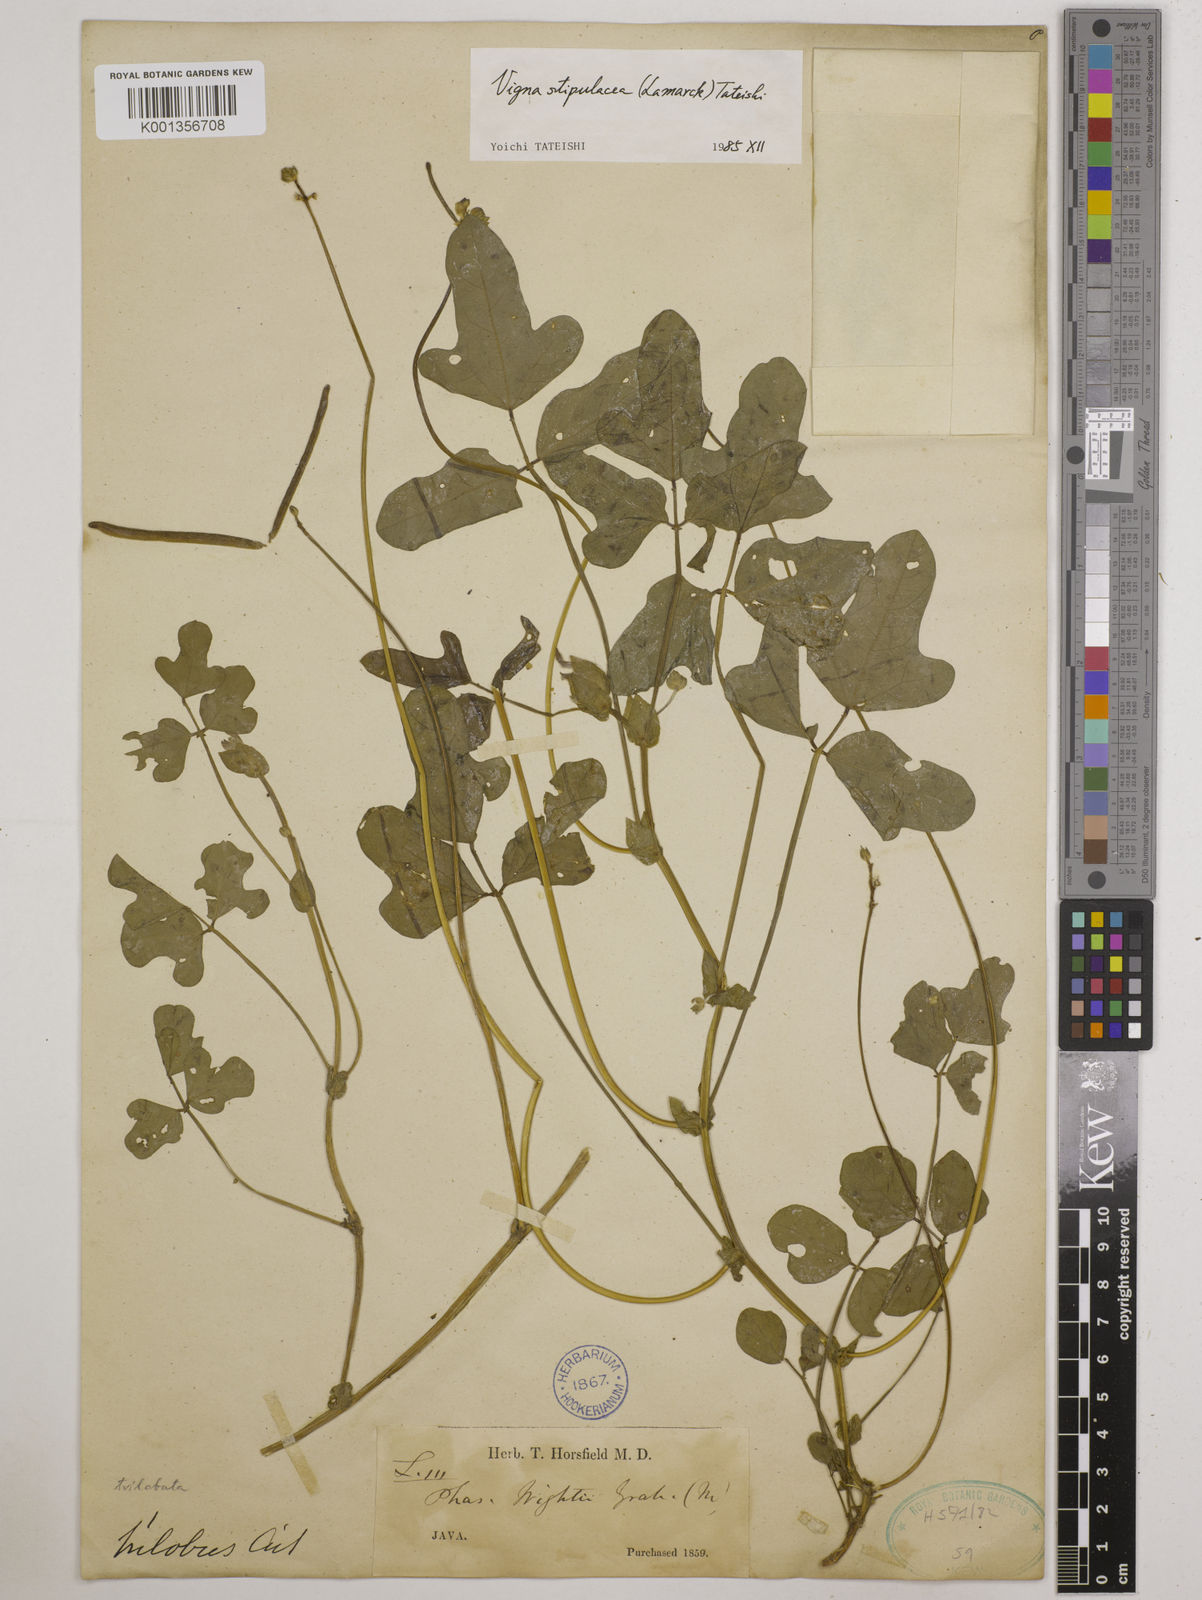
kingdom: Plantae
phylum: Tracheophyta
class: Magnoliopsida
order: Fabales
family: Fabaceae
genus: Pueraria
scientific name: Pueraria montana
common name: Kudzu
